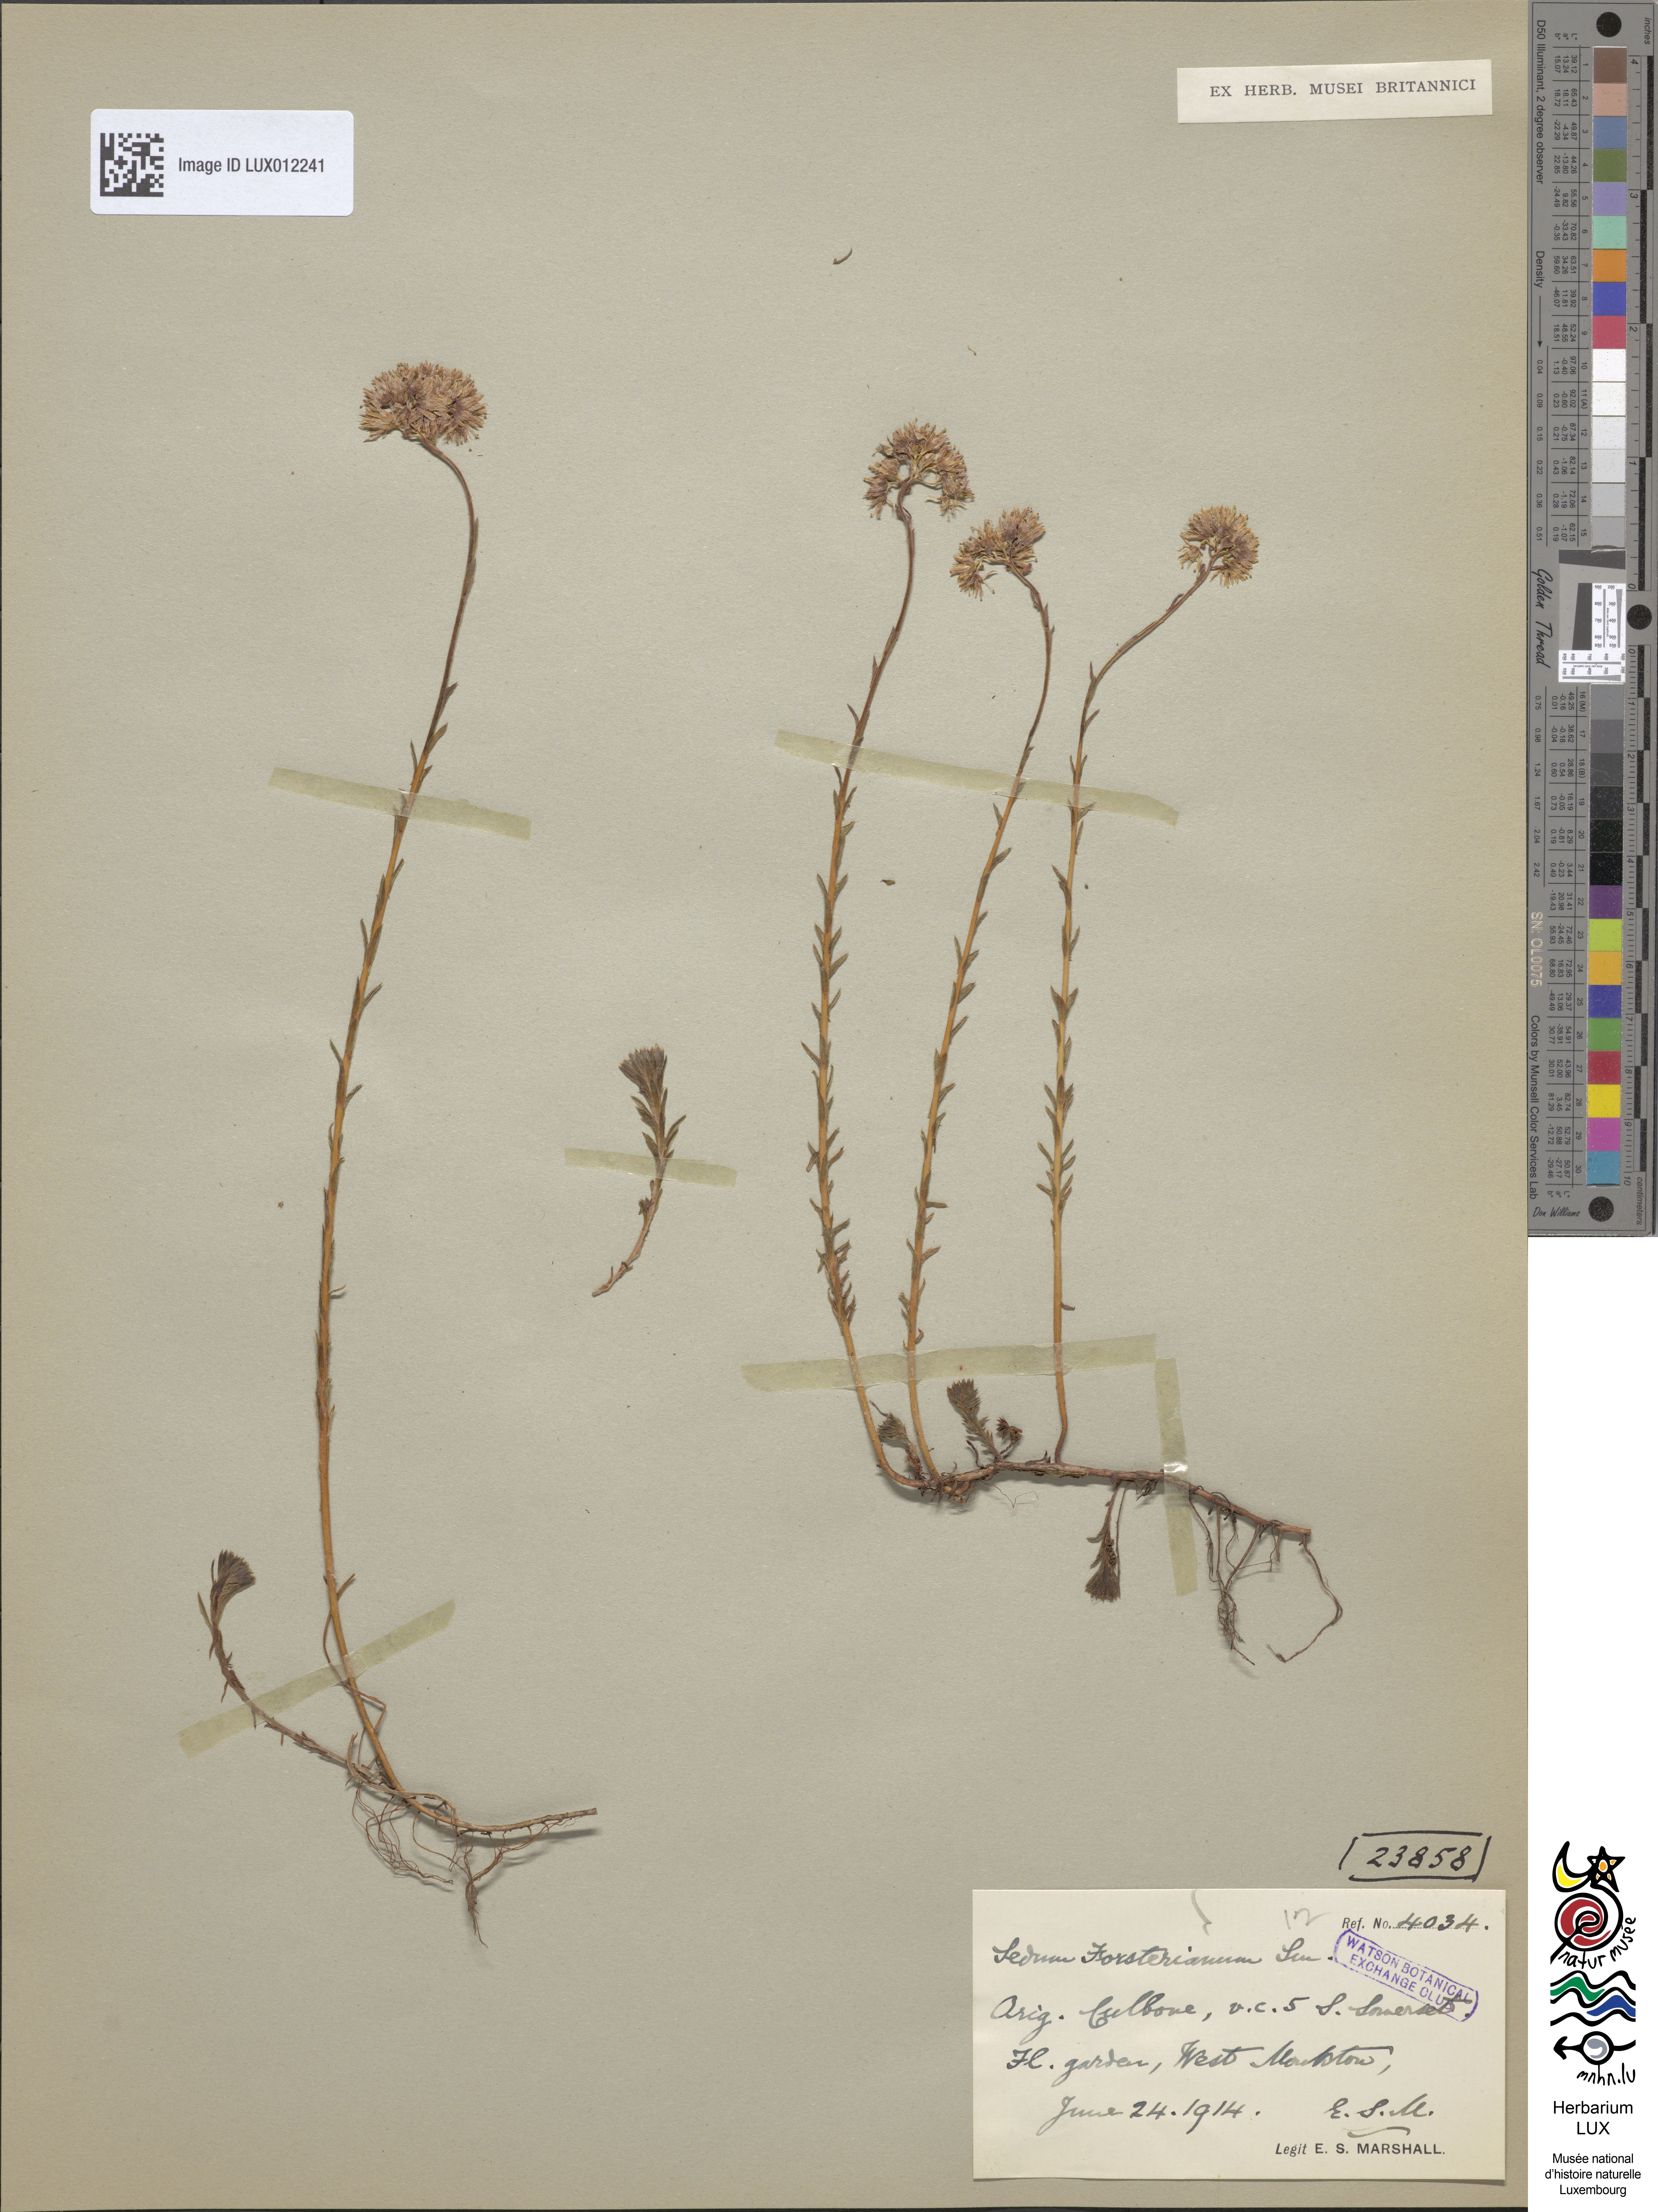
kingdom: Plantae
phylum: Tracheophyta
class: Magnoliopsida
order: Saxifragales
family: Crassulaceae
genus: Petrosedum
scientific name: Petrosedum forsterianum
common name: Forster's stonecrop
